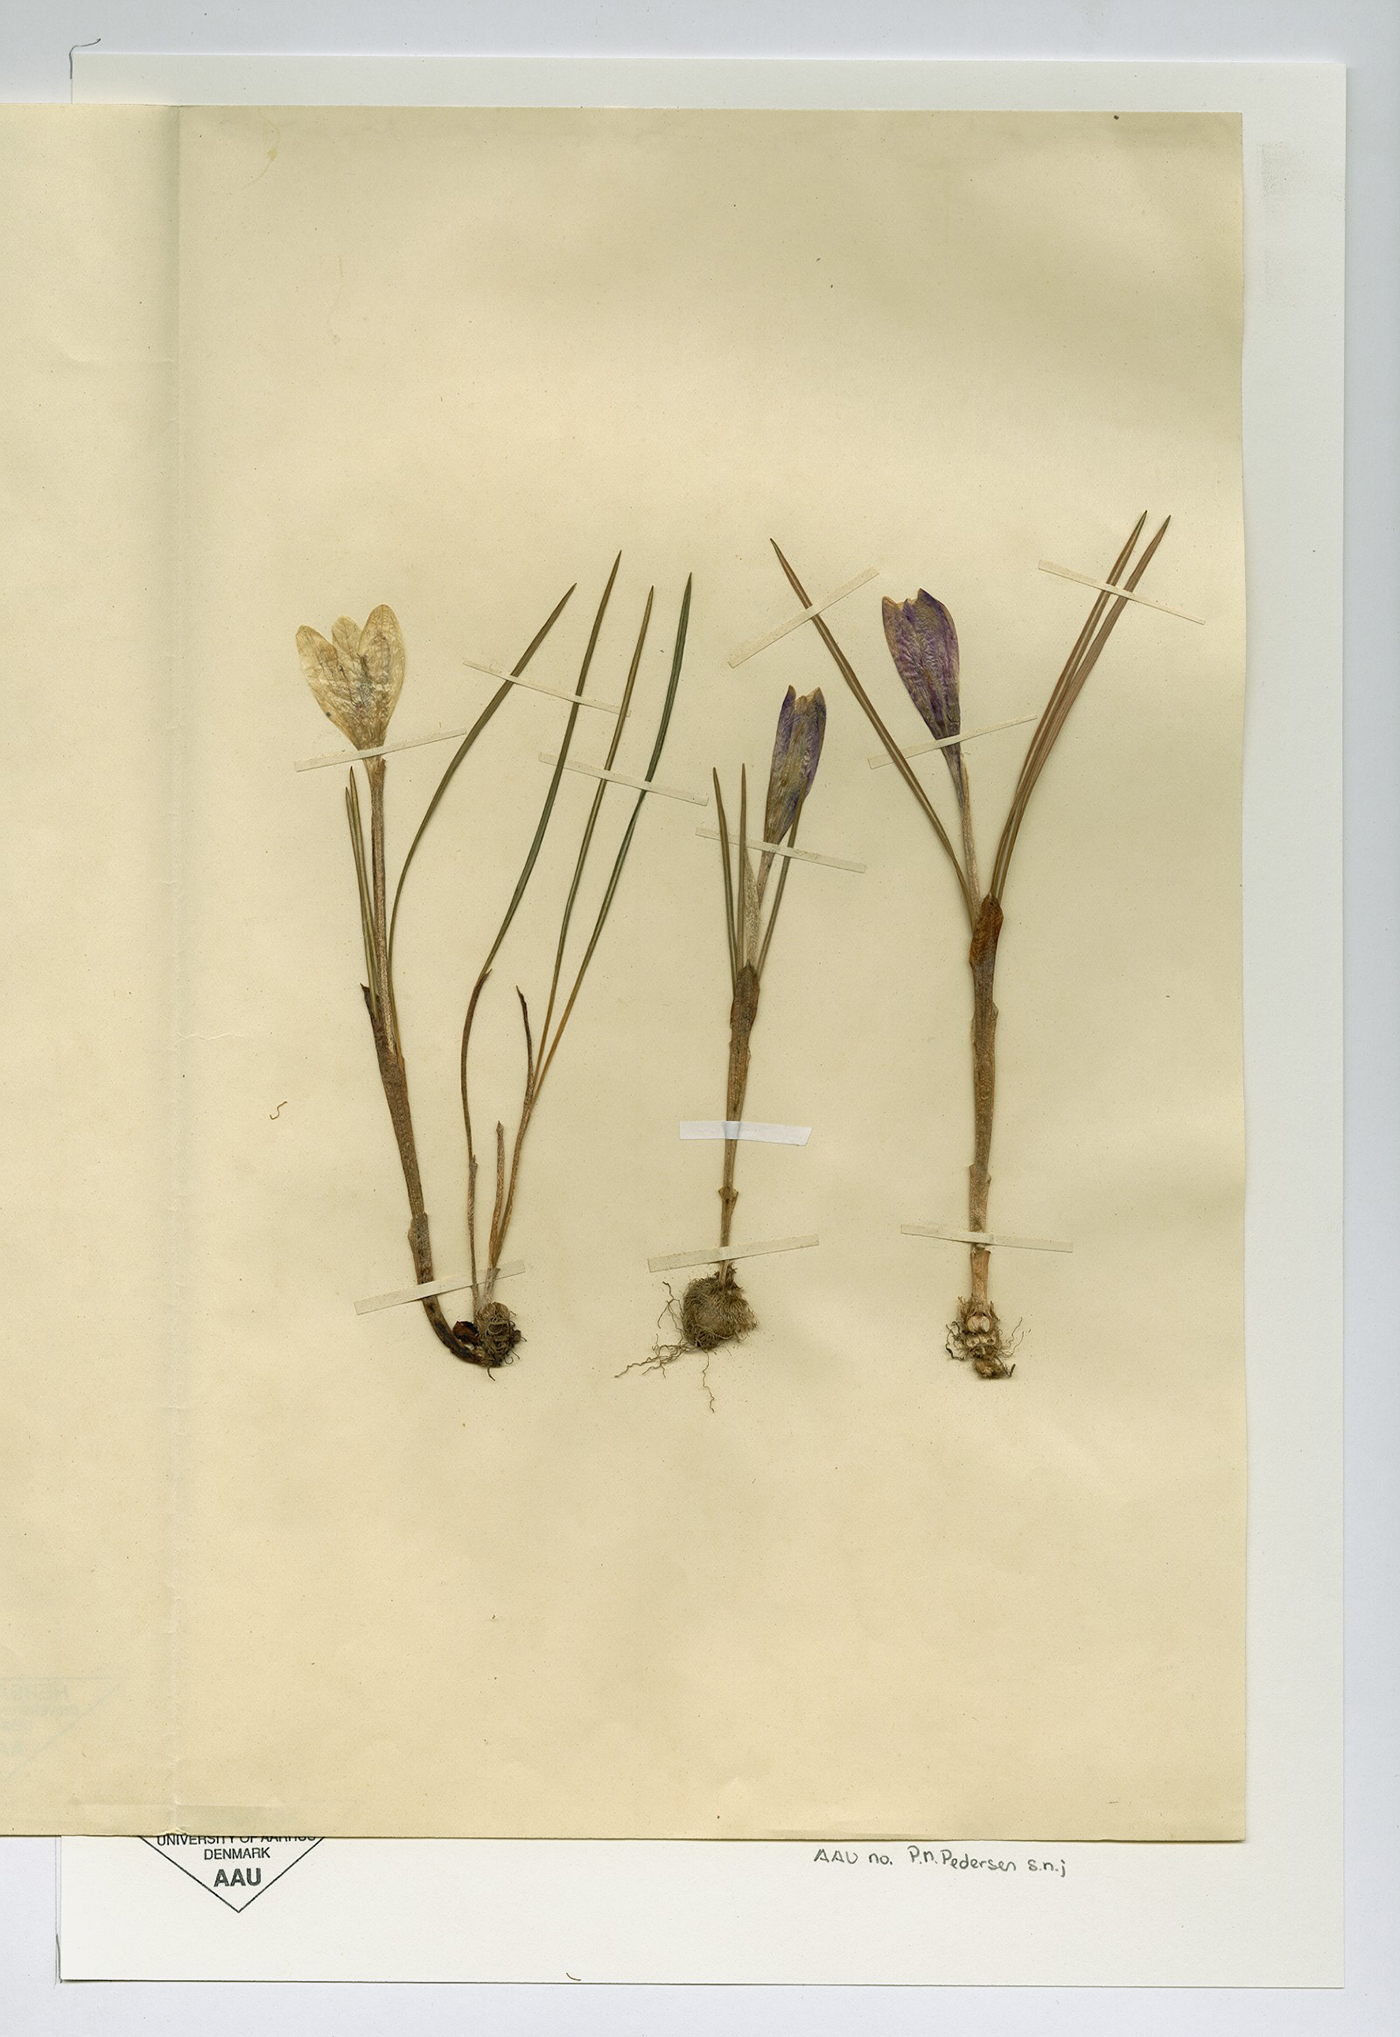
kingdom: Plantae
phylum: Tracheophyta
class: Liliopsida
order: Asparagales
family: Iridaceae
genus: Crocus
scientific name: Crocus neapolitanus
